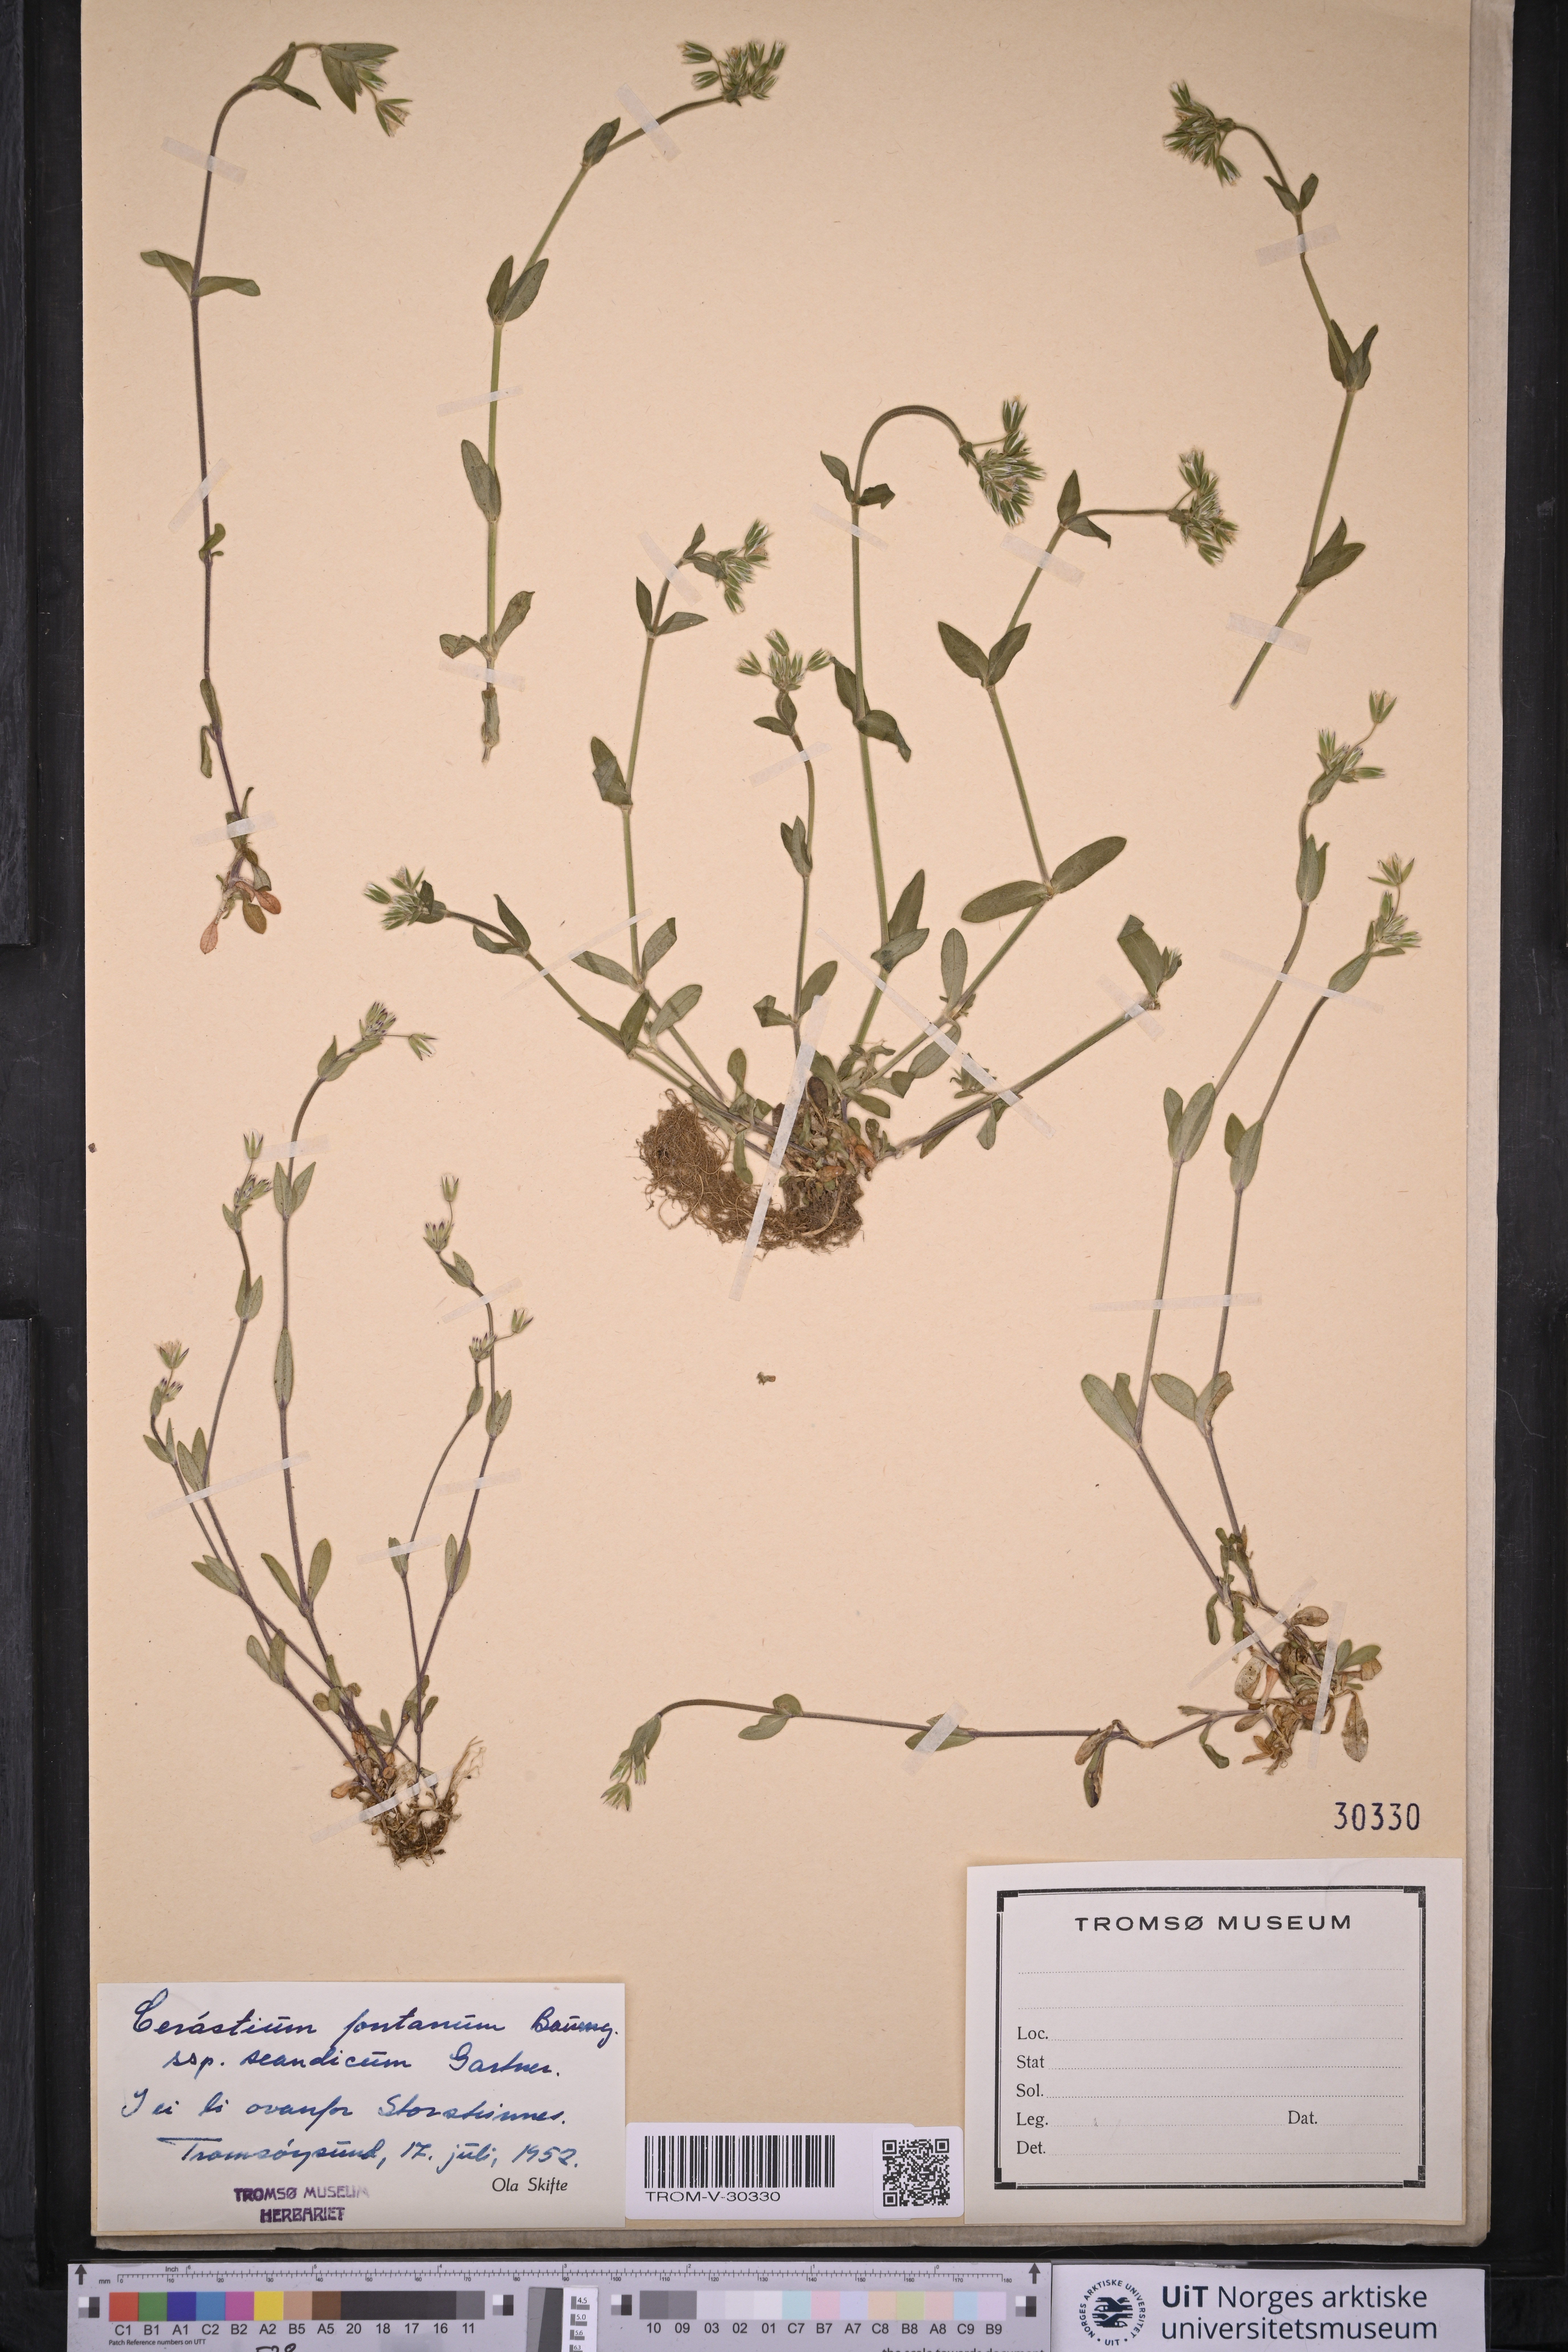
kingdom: Plantae
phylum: Tracheophyta
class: Magnoliopsida
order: Caryophyllales
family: Caryophyllaceae
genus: Cerastium
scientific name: Cerastium fontanum
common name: Common mouse-ear
